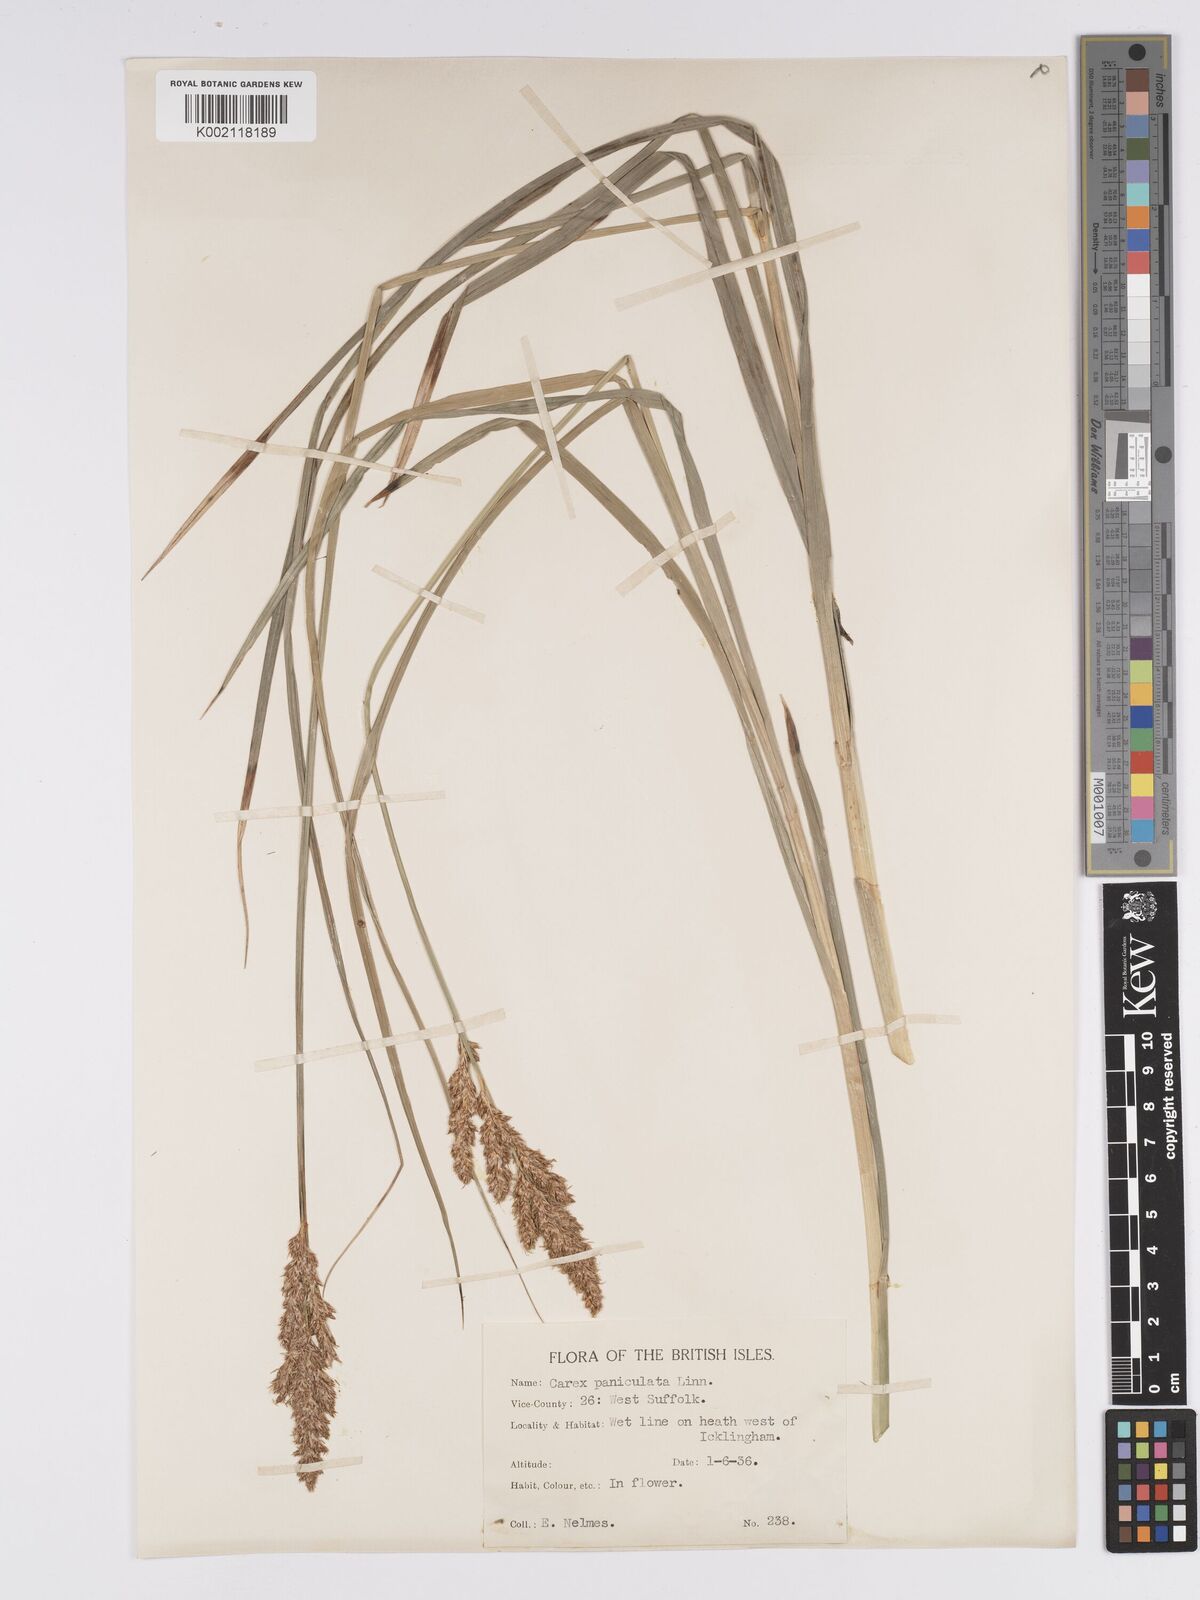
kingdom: Plantae
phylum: Tracheophyta
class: Liliopsida
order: Poales
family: Cyperaceae
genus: Carex
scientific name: Carex paniculata
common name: Greater tussock-sedge
